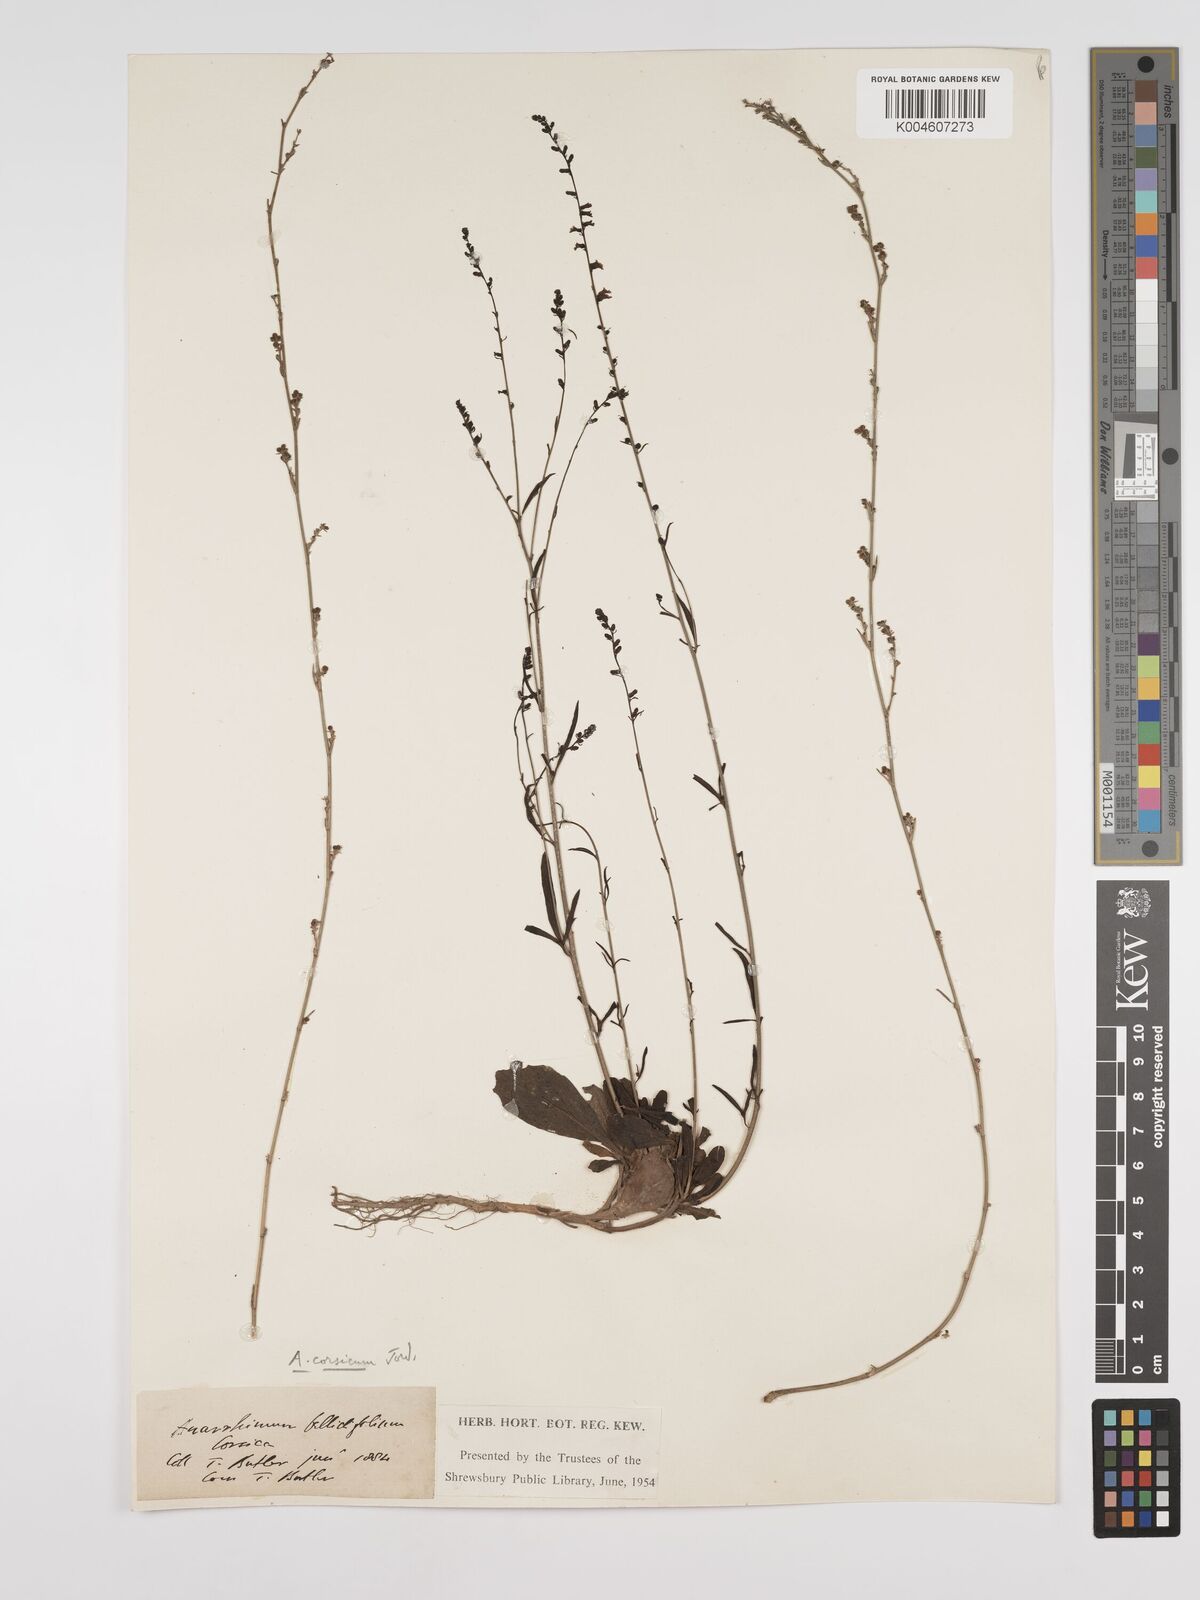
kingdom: Plantae
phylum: Tracheophyta
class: Magnoliopsida
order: Lamiales
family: Plantaginaceae
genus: Anarrhinum
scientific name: Anarrhinum corsicum
